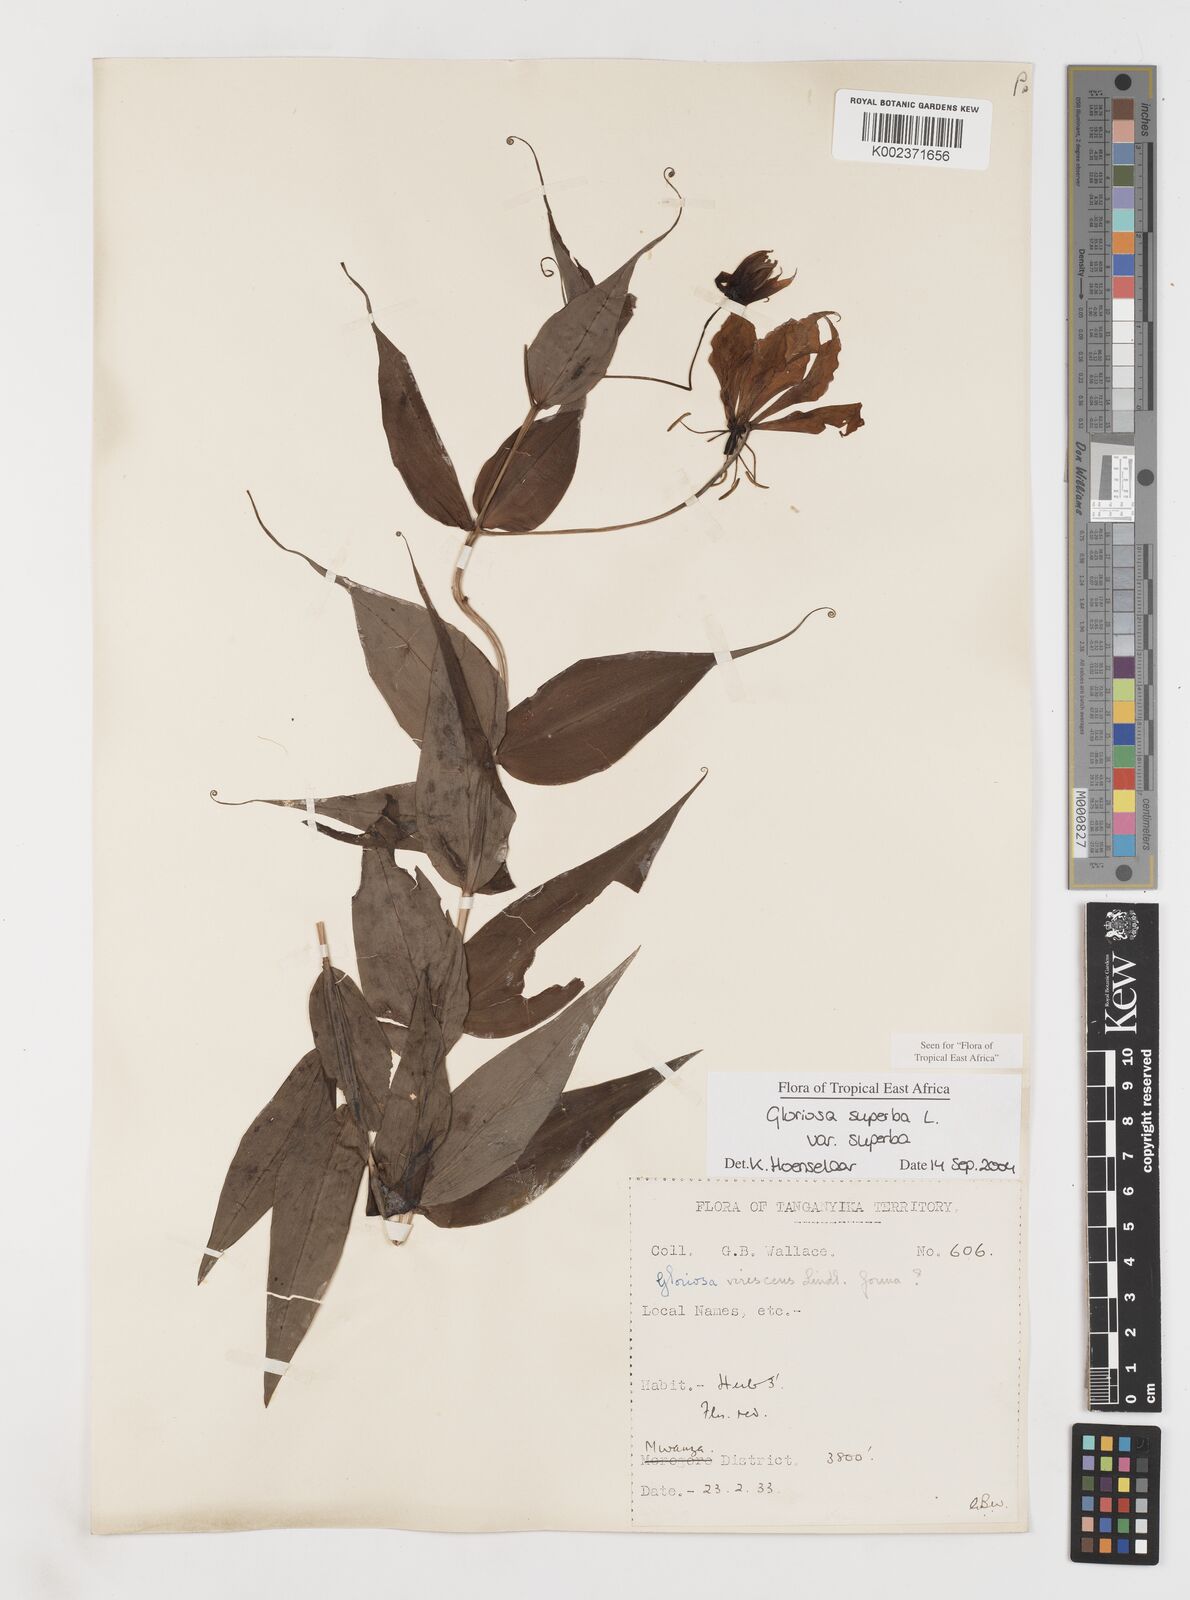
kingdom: Plantae
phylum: Tracheophyta
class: Liliopsida
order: Liliales
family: Colchicaceae
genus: Gloriosa
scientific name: Gloriosa simplex
